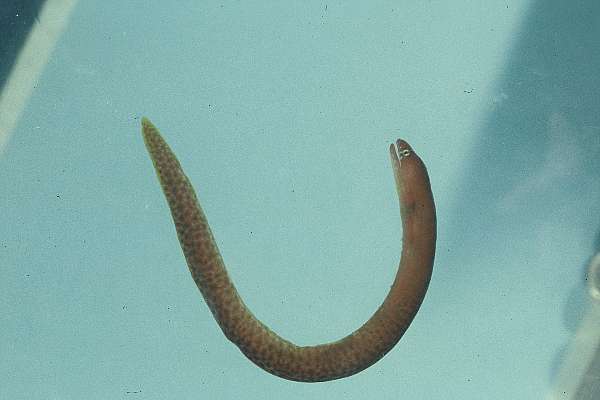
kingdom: Animalia
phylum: Chordata
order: Anguilliformes
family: Muraenidae
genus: Gymnothorax
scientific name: Gymnothorax fuscomaculatus
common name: Freckled moray
